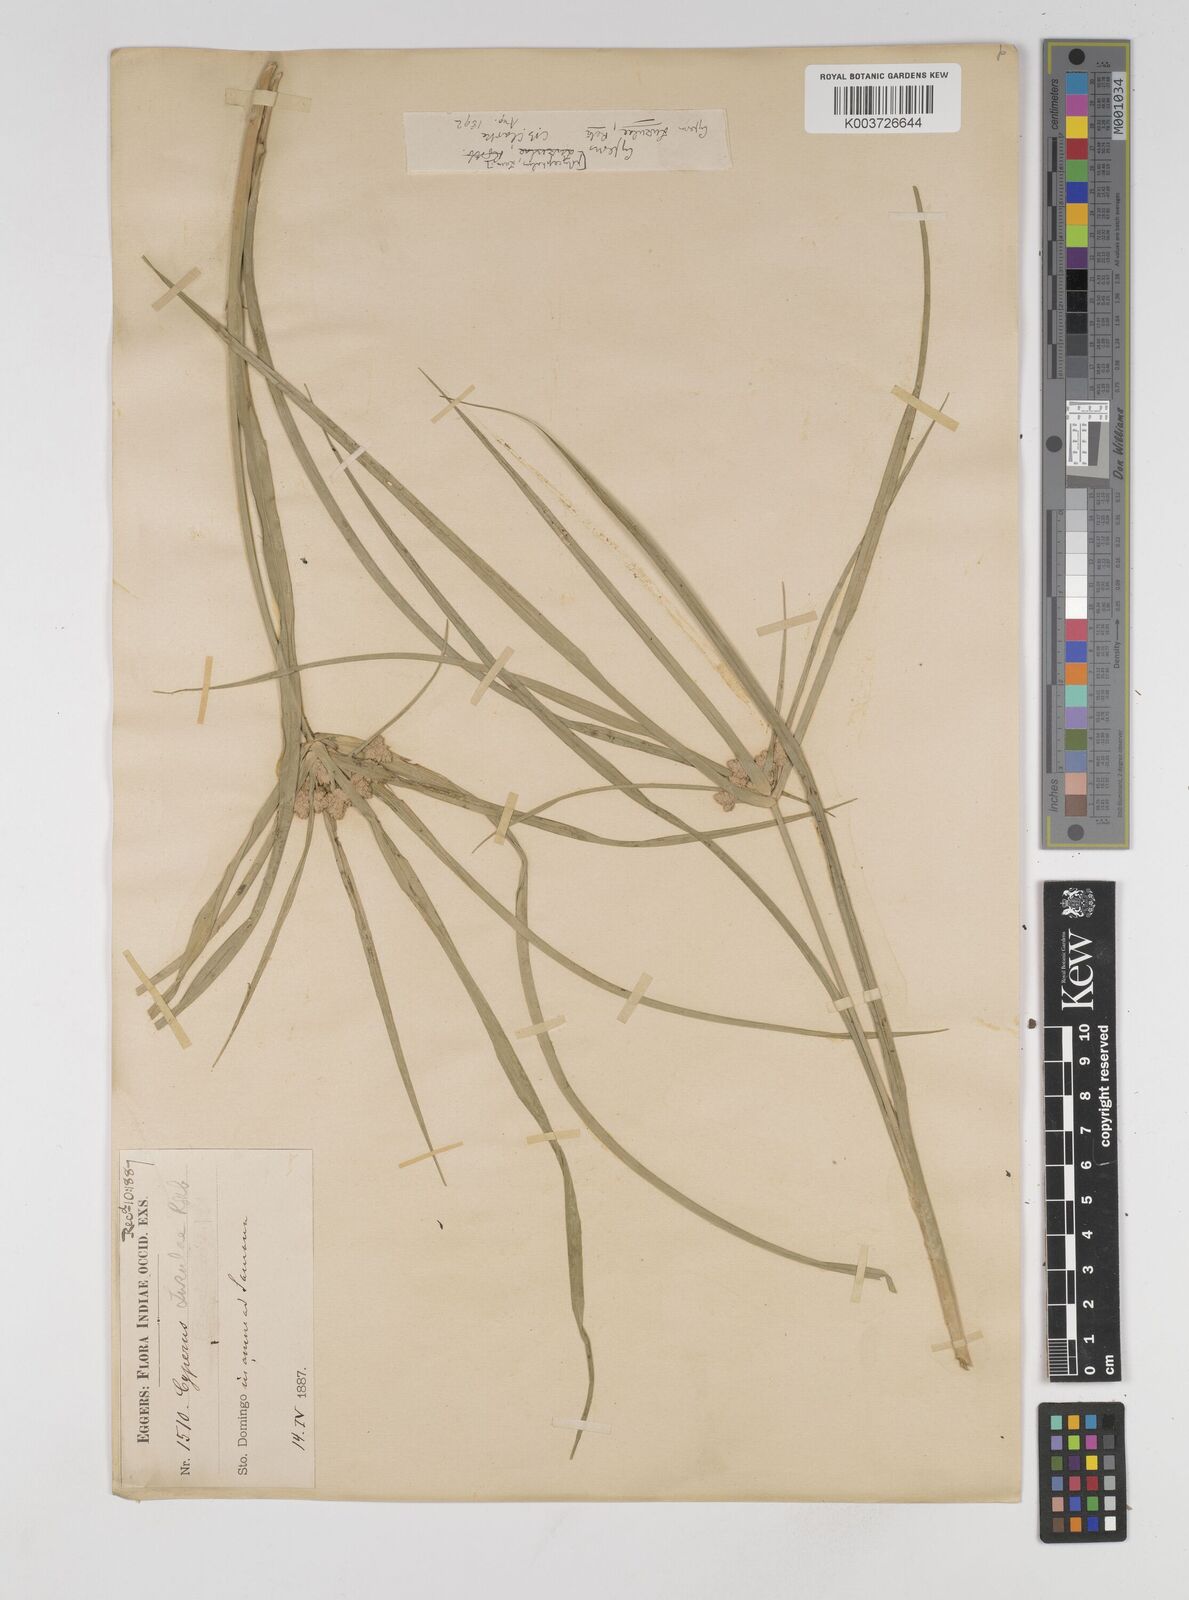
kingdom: Plantae
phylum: Tracheophyta
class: Liliopsida
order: Poales
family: Cyperaceae
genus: Cyperus
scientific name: Cyperus luzulae
